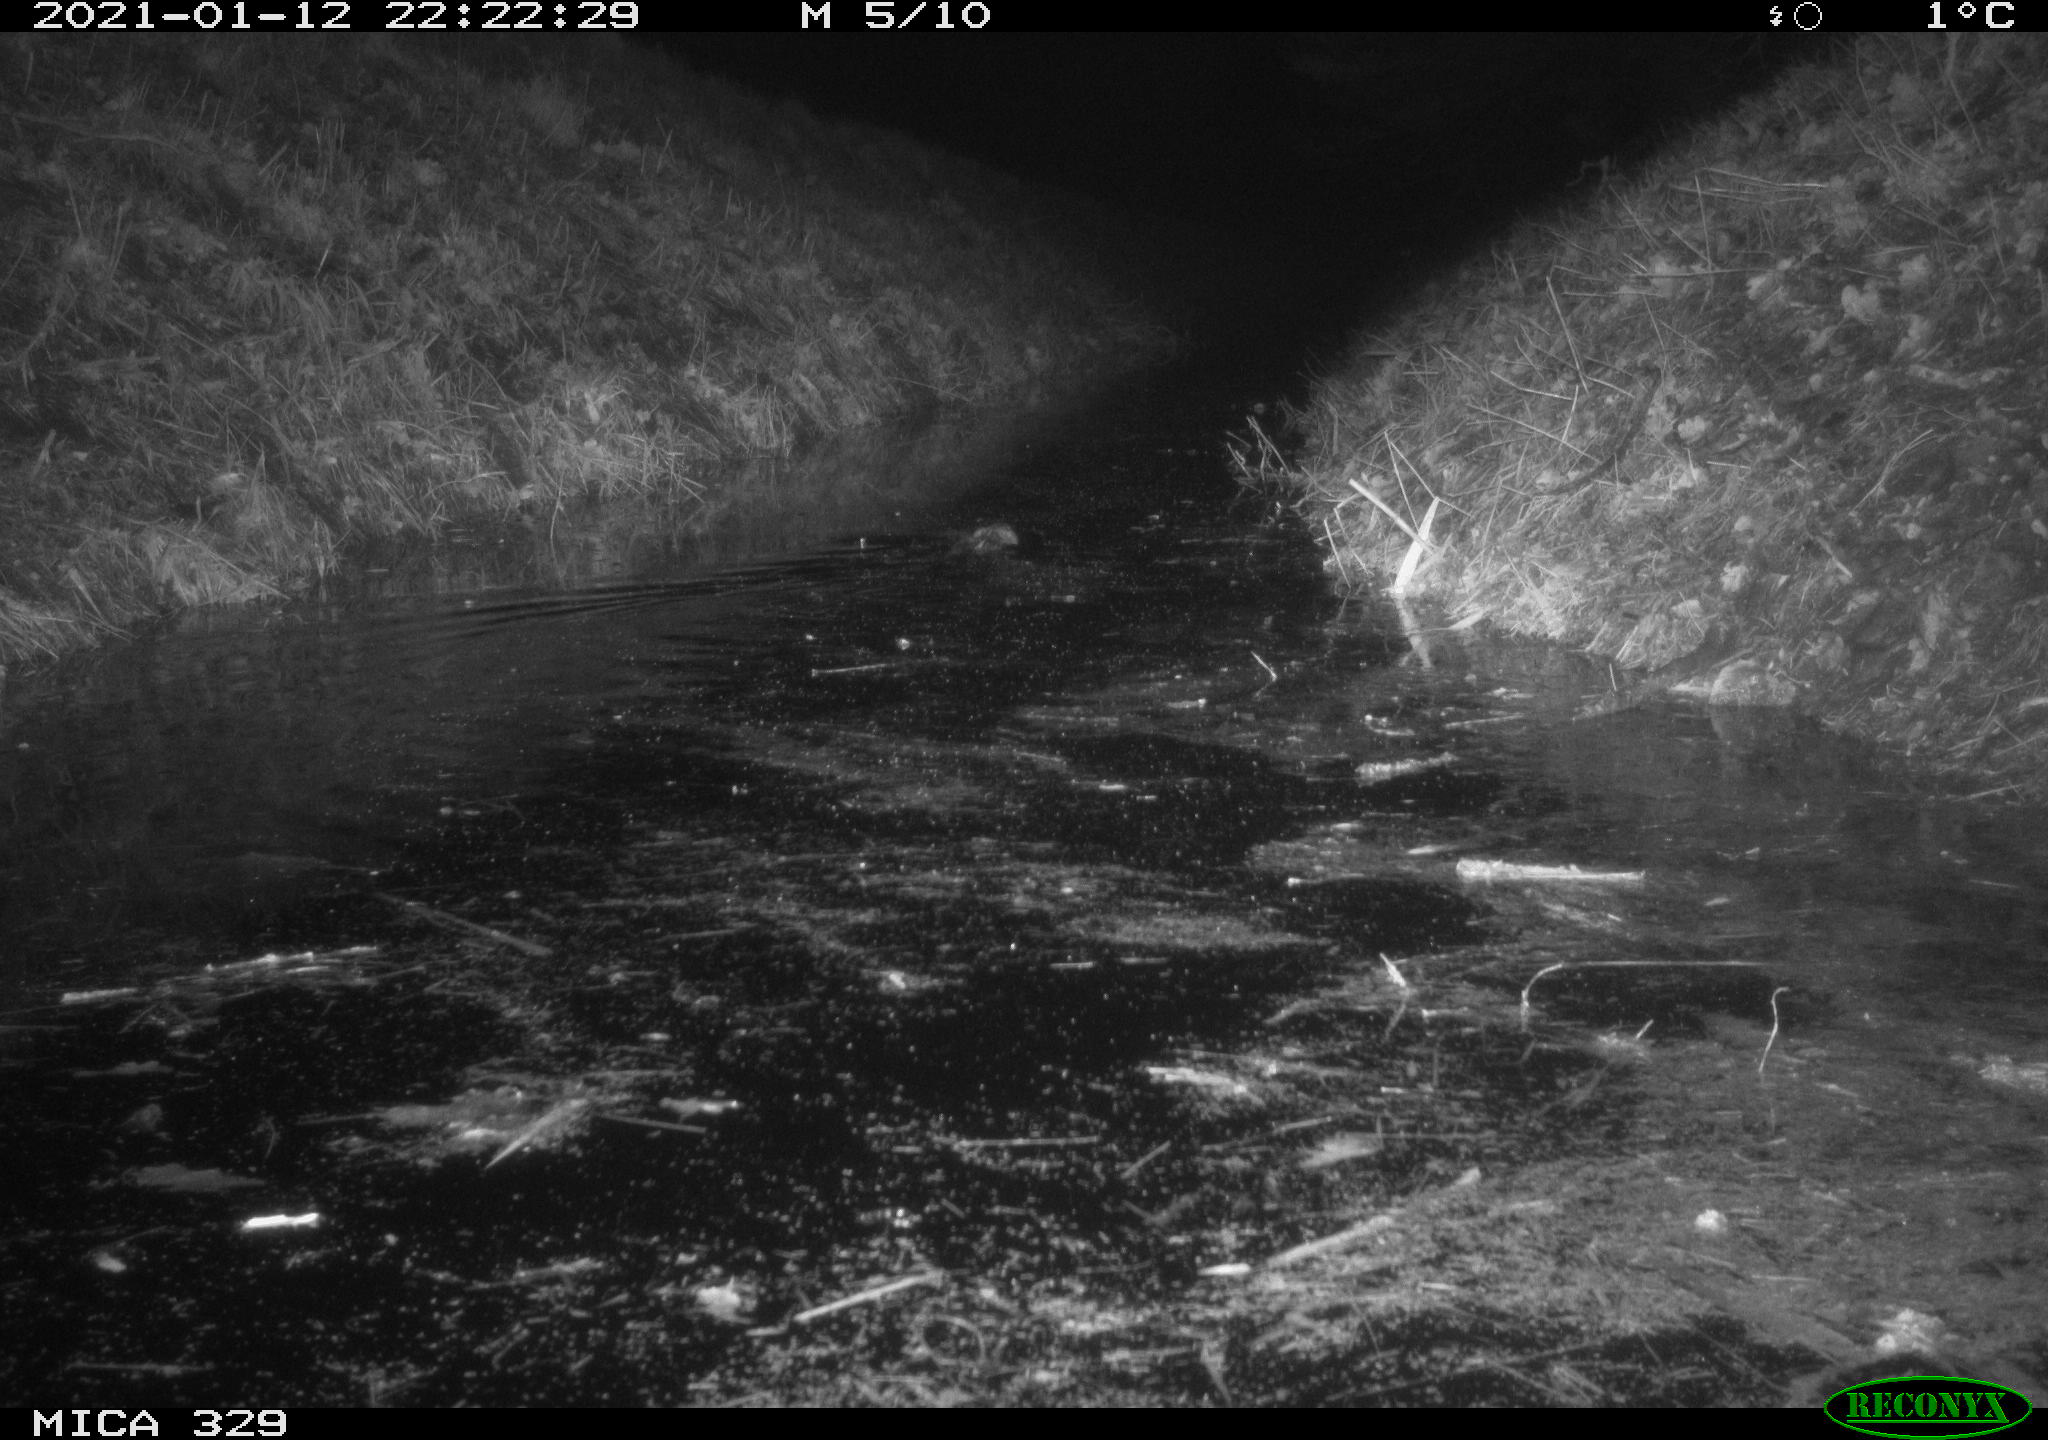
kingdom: Animalia
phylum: Chordata
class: Mammalia
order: Rodentia
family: Cricetidae
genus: Ondatra
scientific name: Ondatra zibethicus
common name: Muskrat
